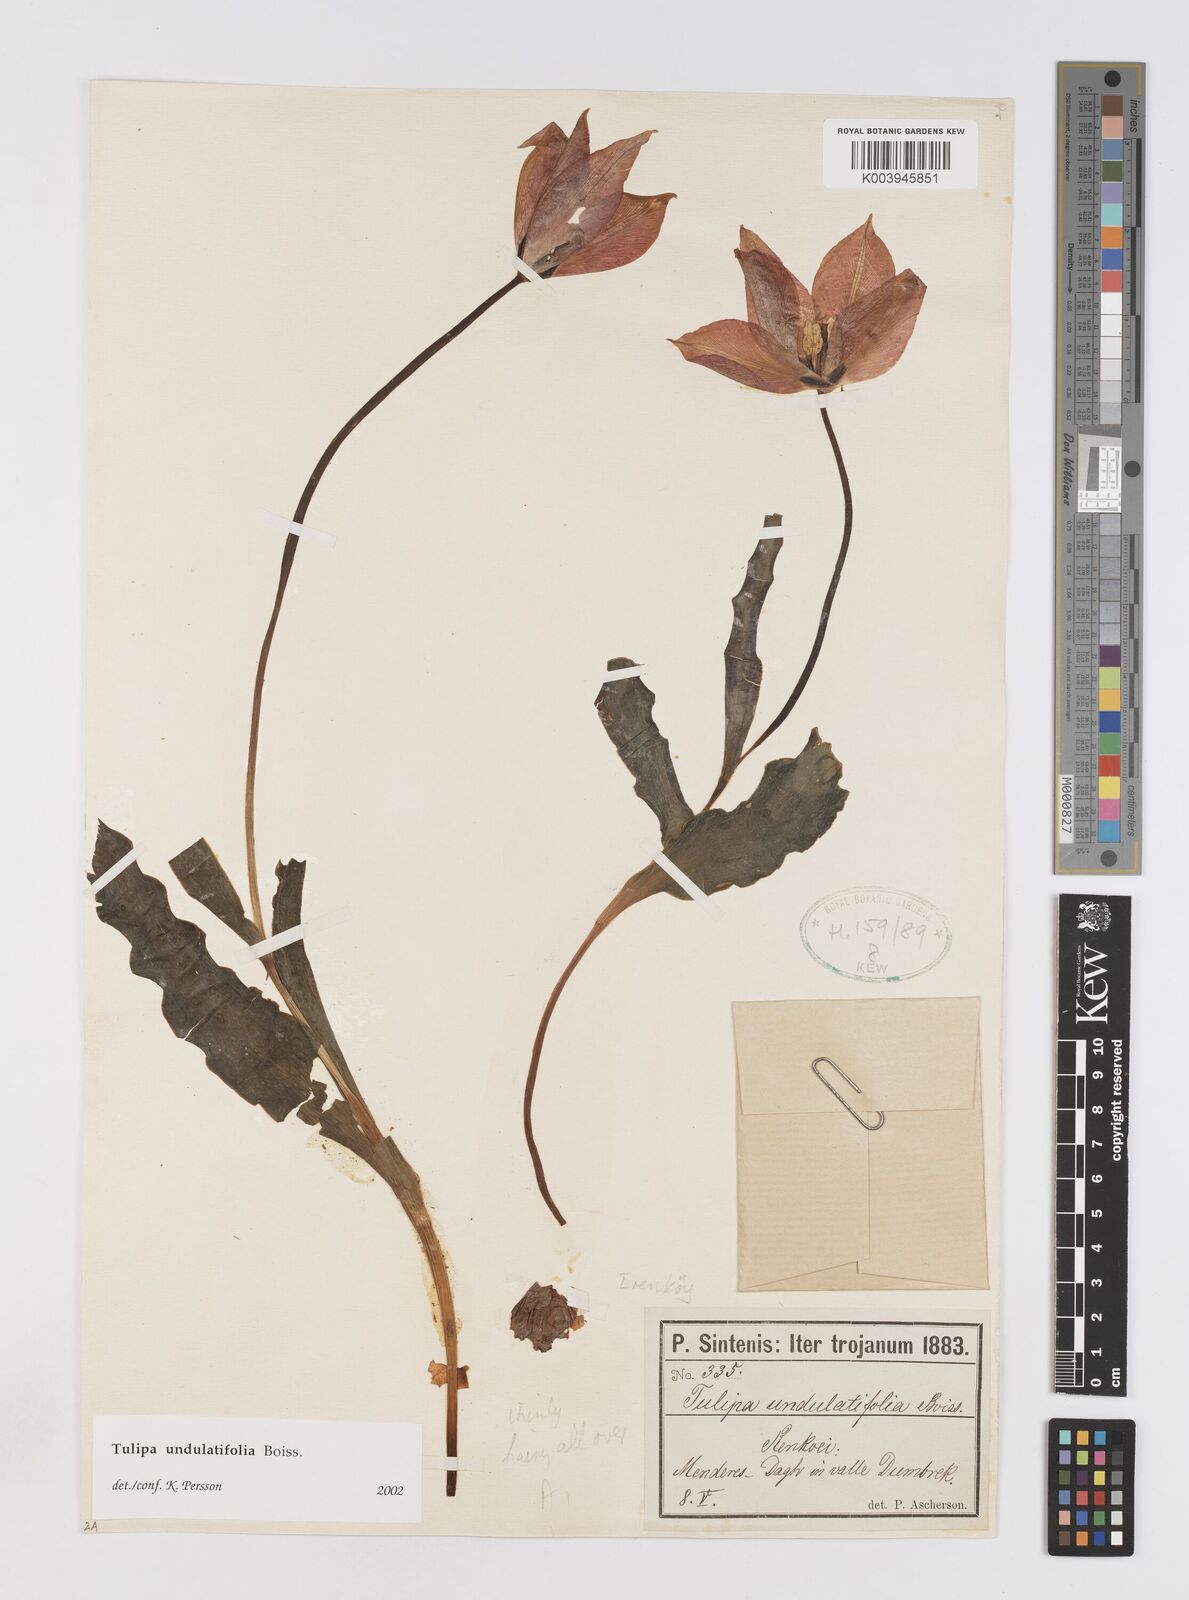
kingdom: Plantae
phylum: Tracheophyta
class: Liliopsida
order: Liliales
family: Liliaceae
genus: Tulipa
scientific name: Tulipa undulatifolia
